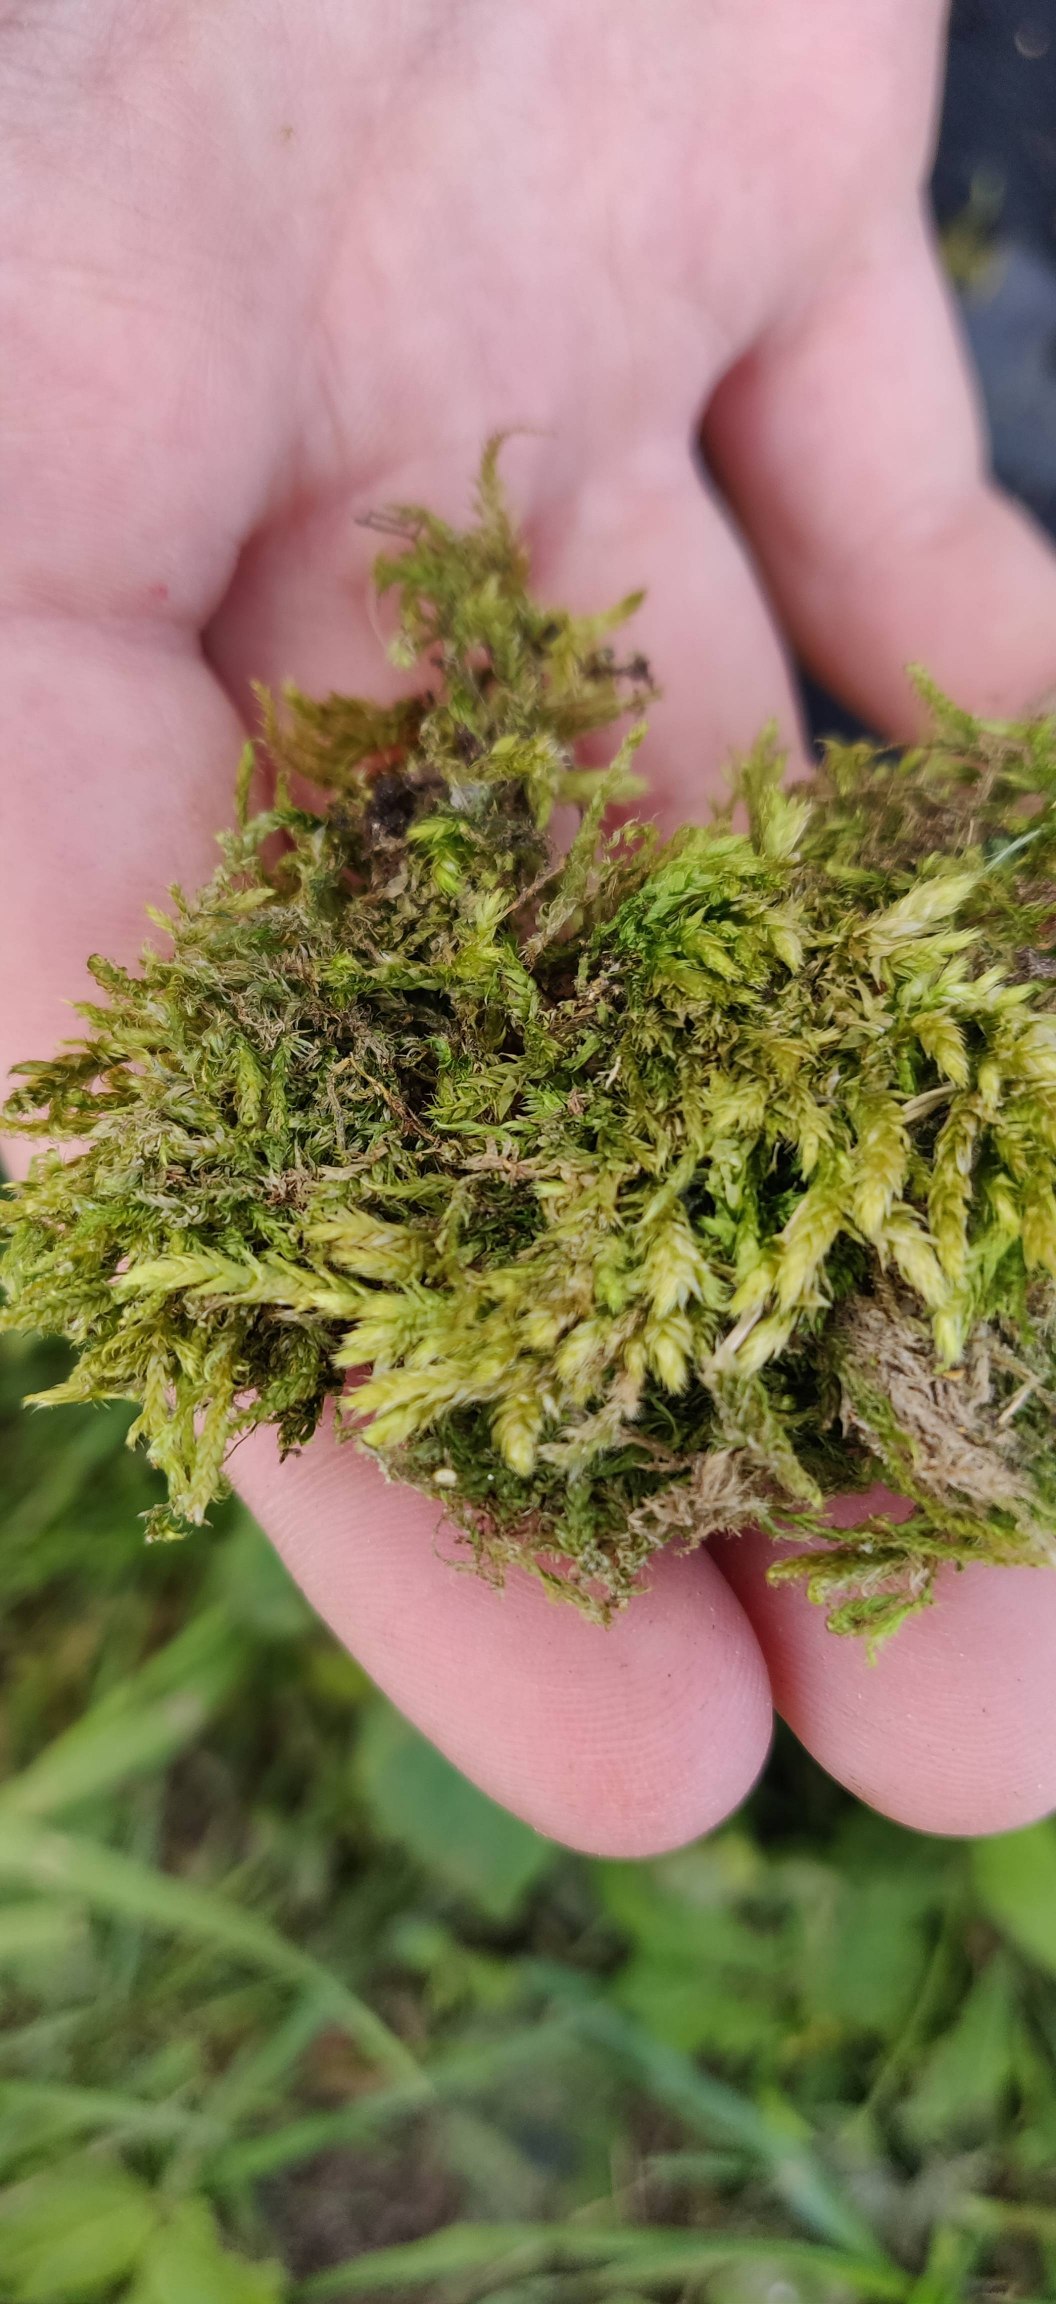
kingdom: Plantae
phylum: Bryophyta
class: Bryopsida
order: Hypnales
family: Brachytheciaceae
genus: Brachythecium
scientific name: Brachythecium rutabulum
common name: Almindelig kortkapsel
